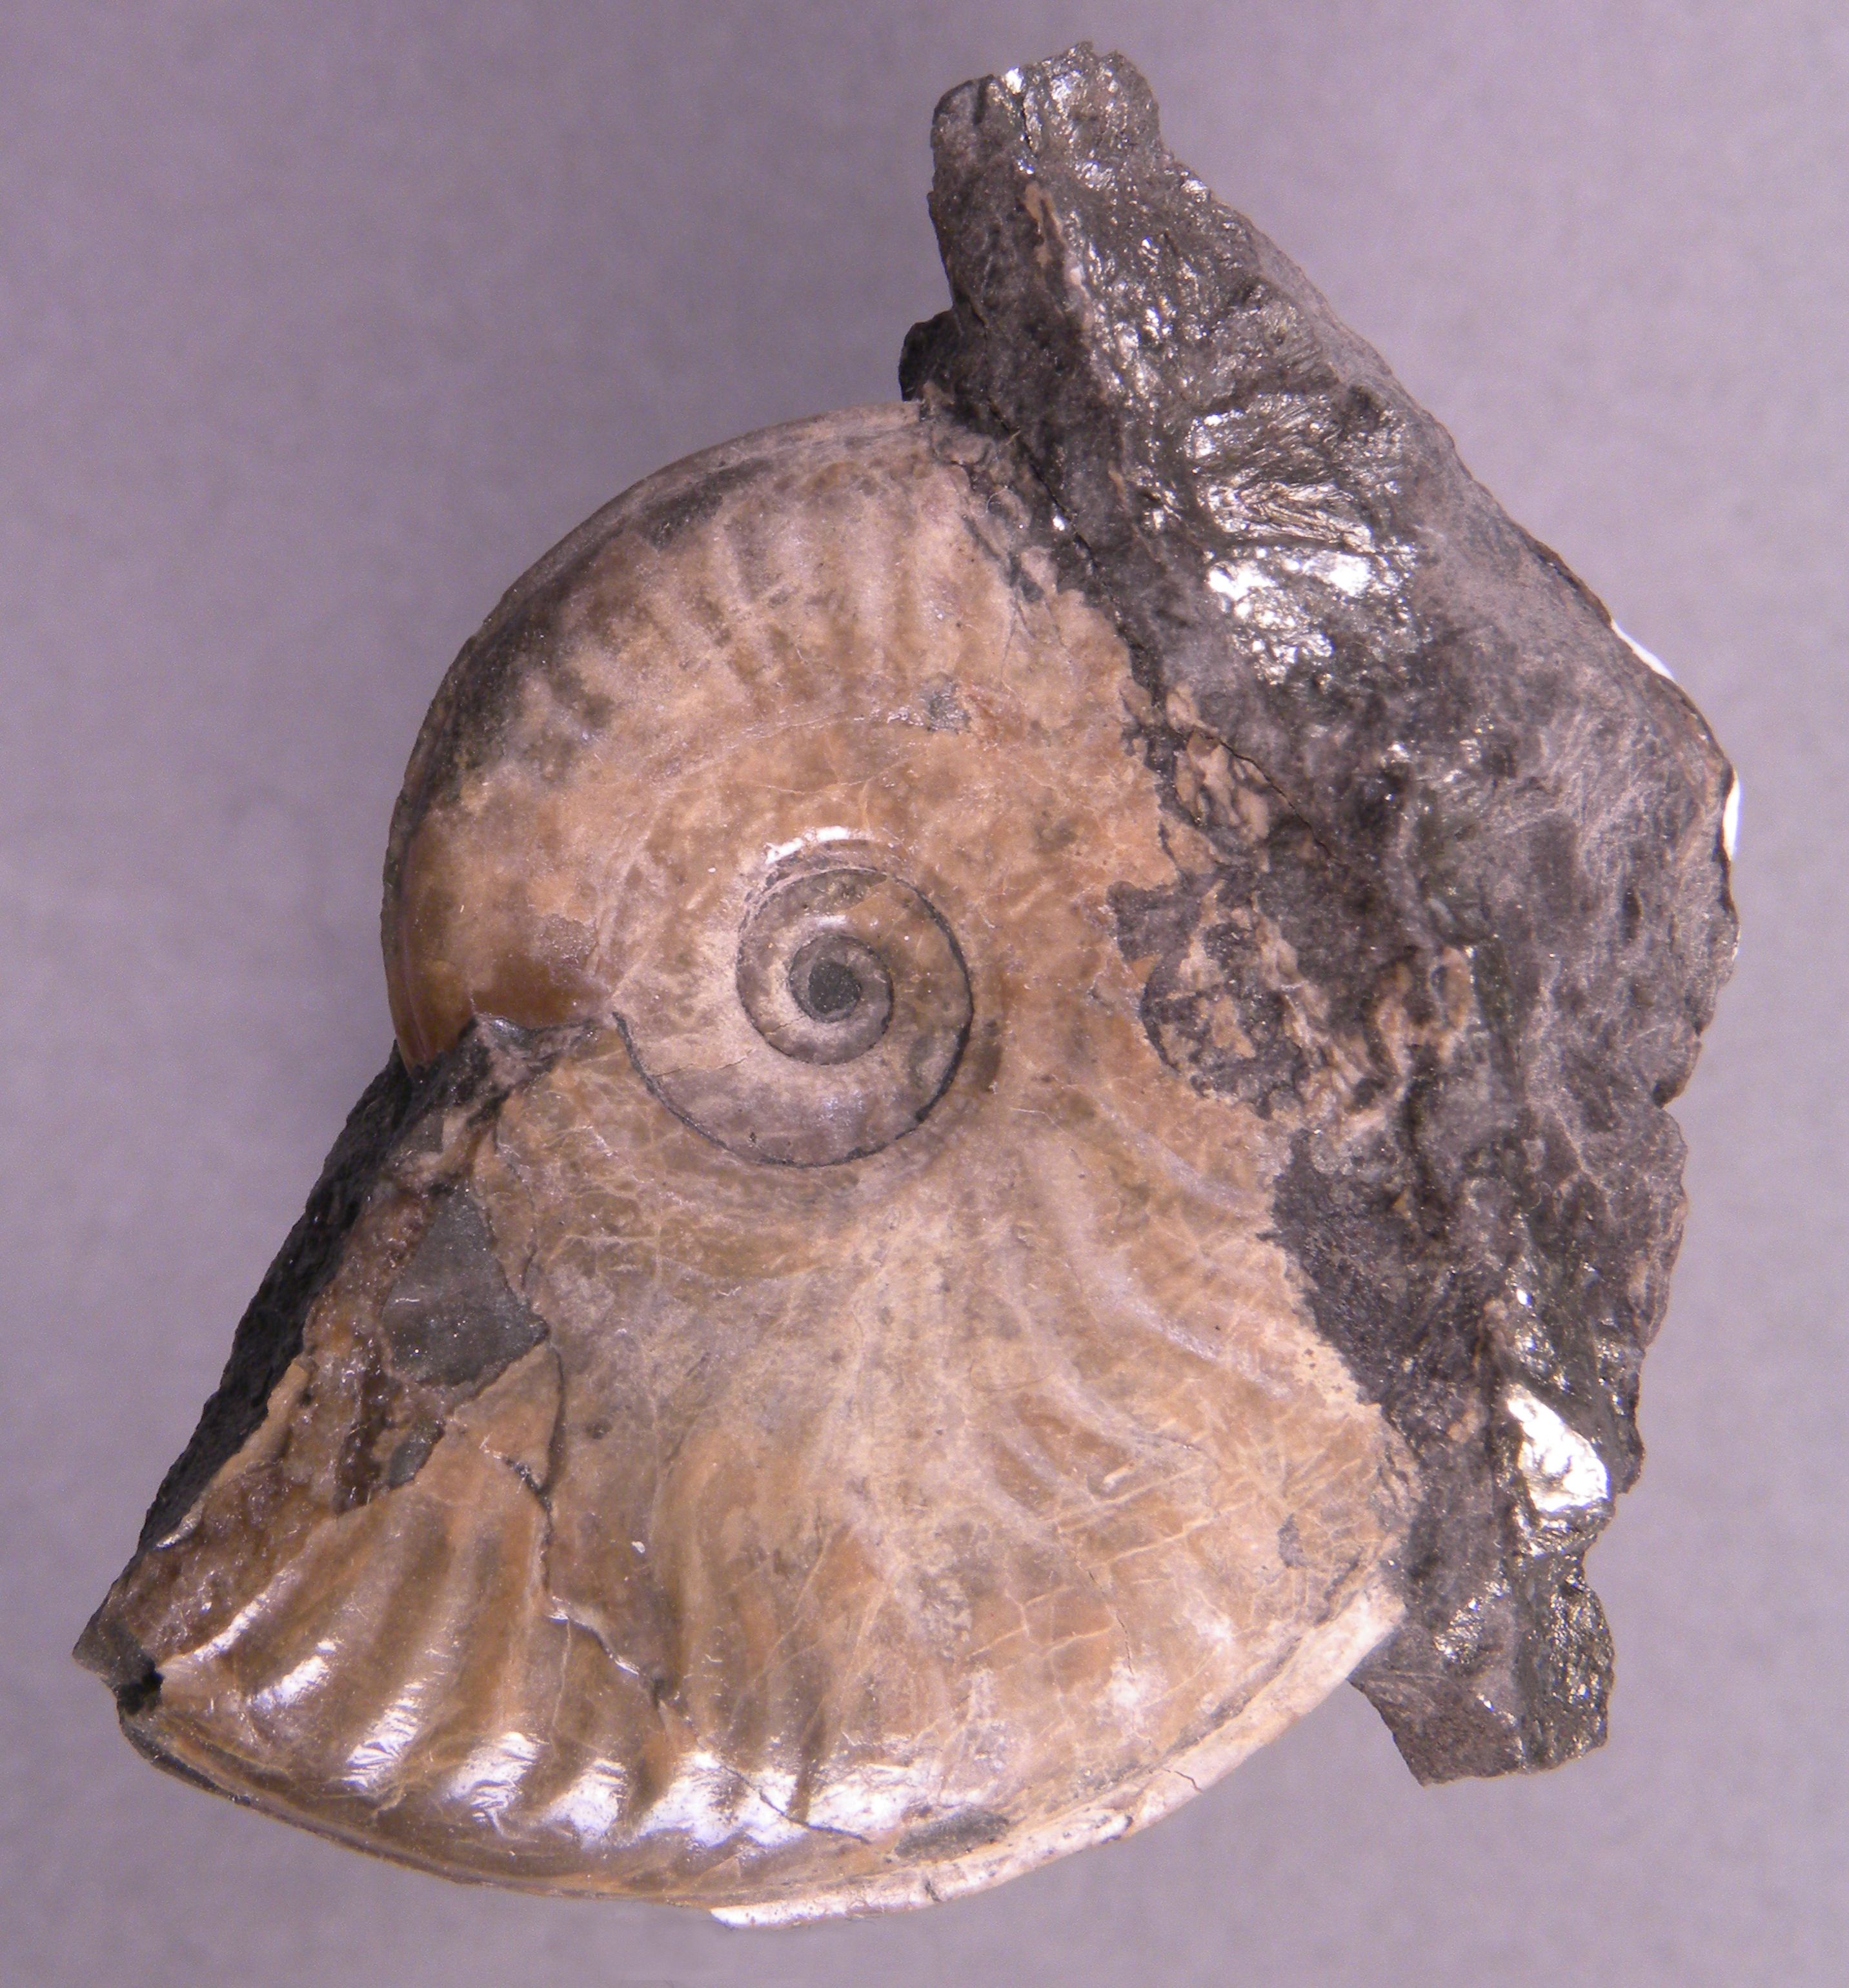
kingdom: Animalia
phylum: Mollusca
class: Cephalopoda
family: Hildoceratidae
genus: Eleganticeras
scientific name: Eleganticeras elegans
